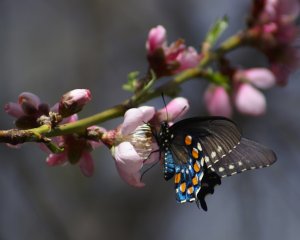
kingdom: Animalia
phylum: Arthropoda
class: Insecta
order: Lepidoptera
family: Papilionidae
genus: Battus
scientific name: Battus philenor
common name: Pipevine Swallowtail
